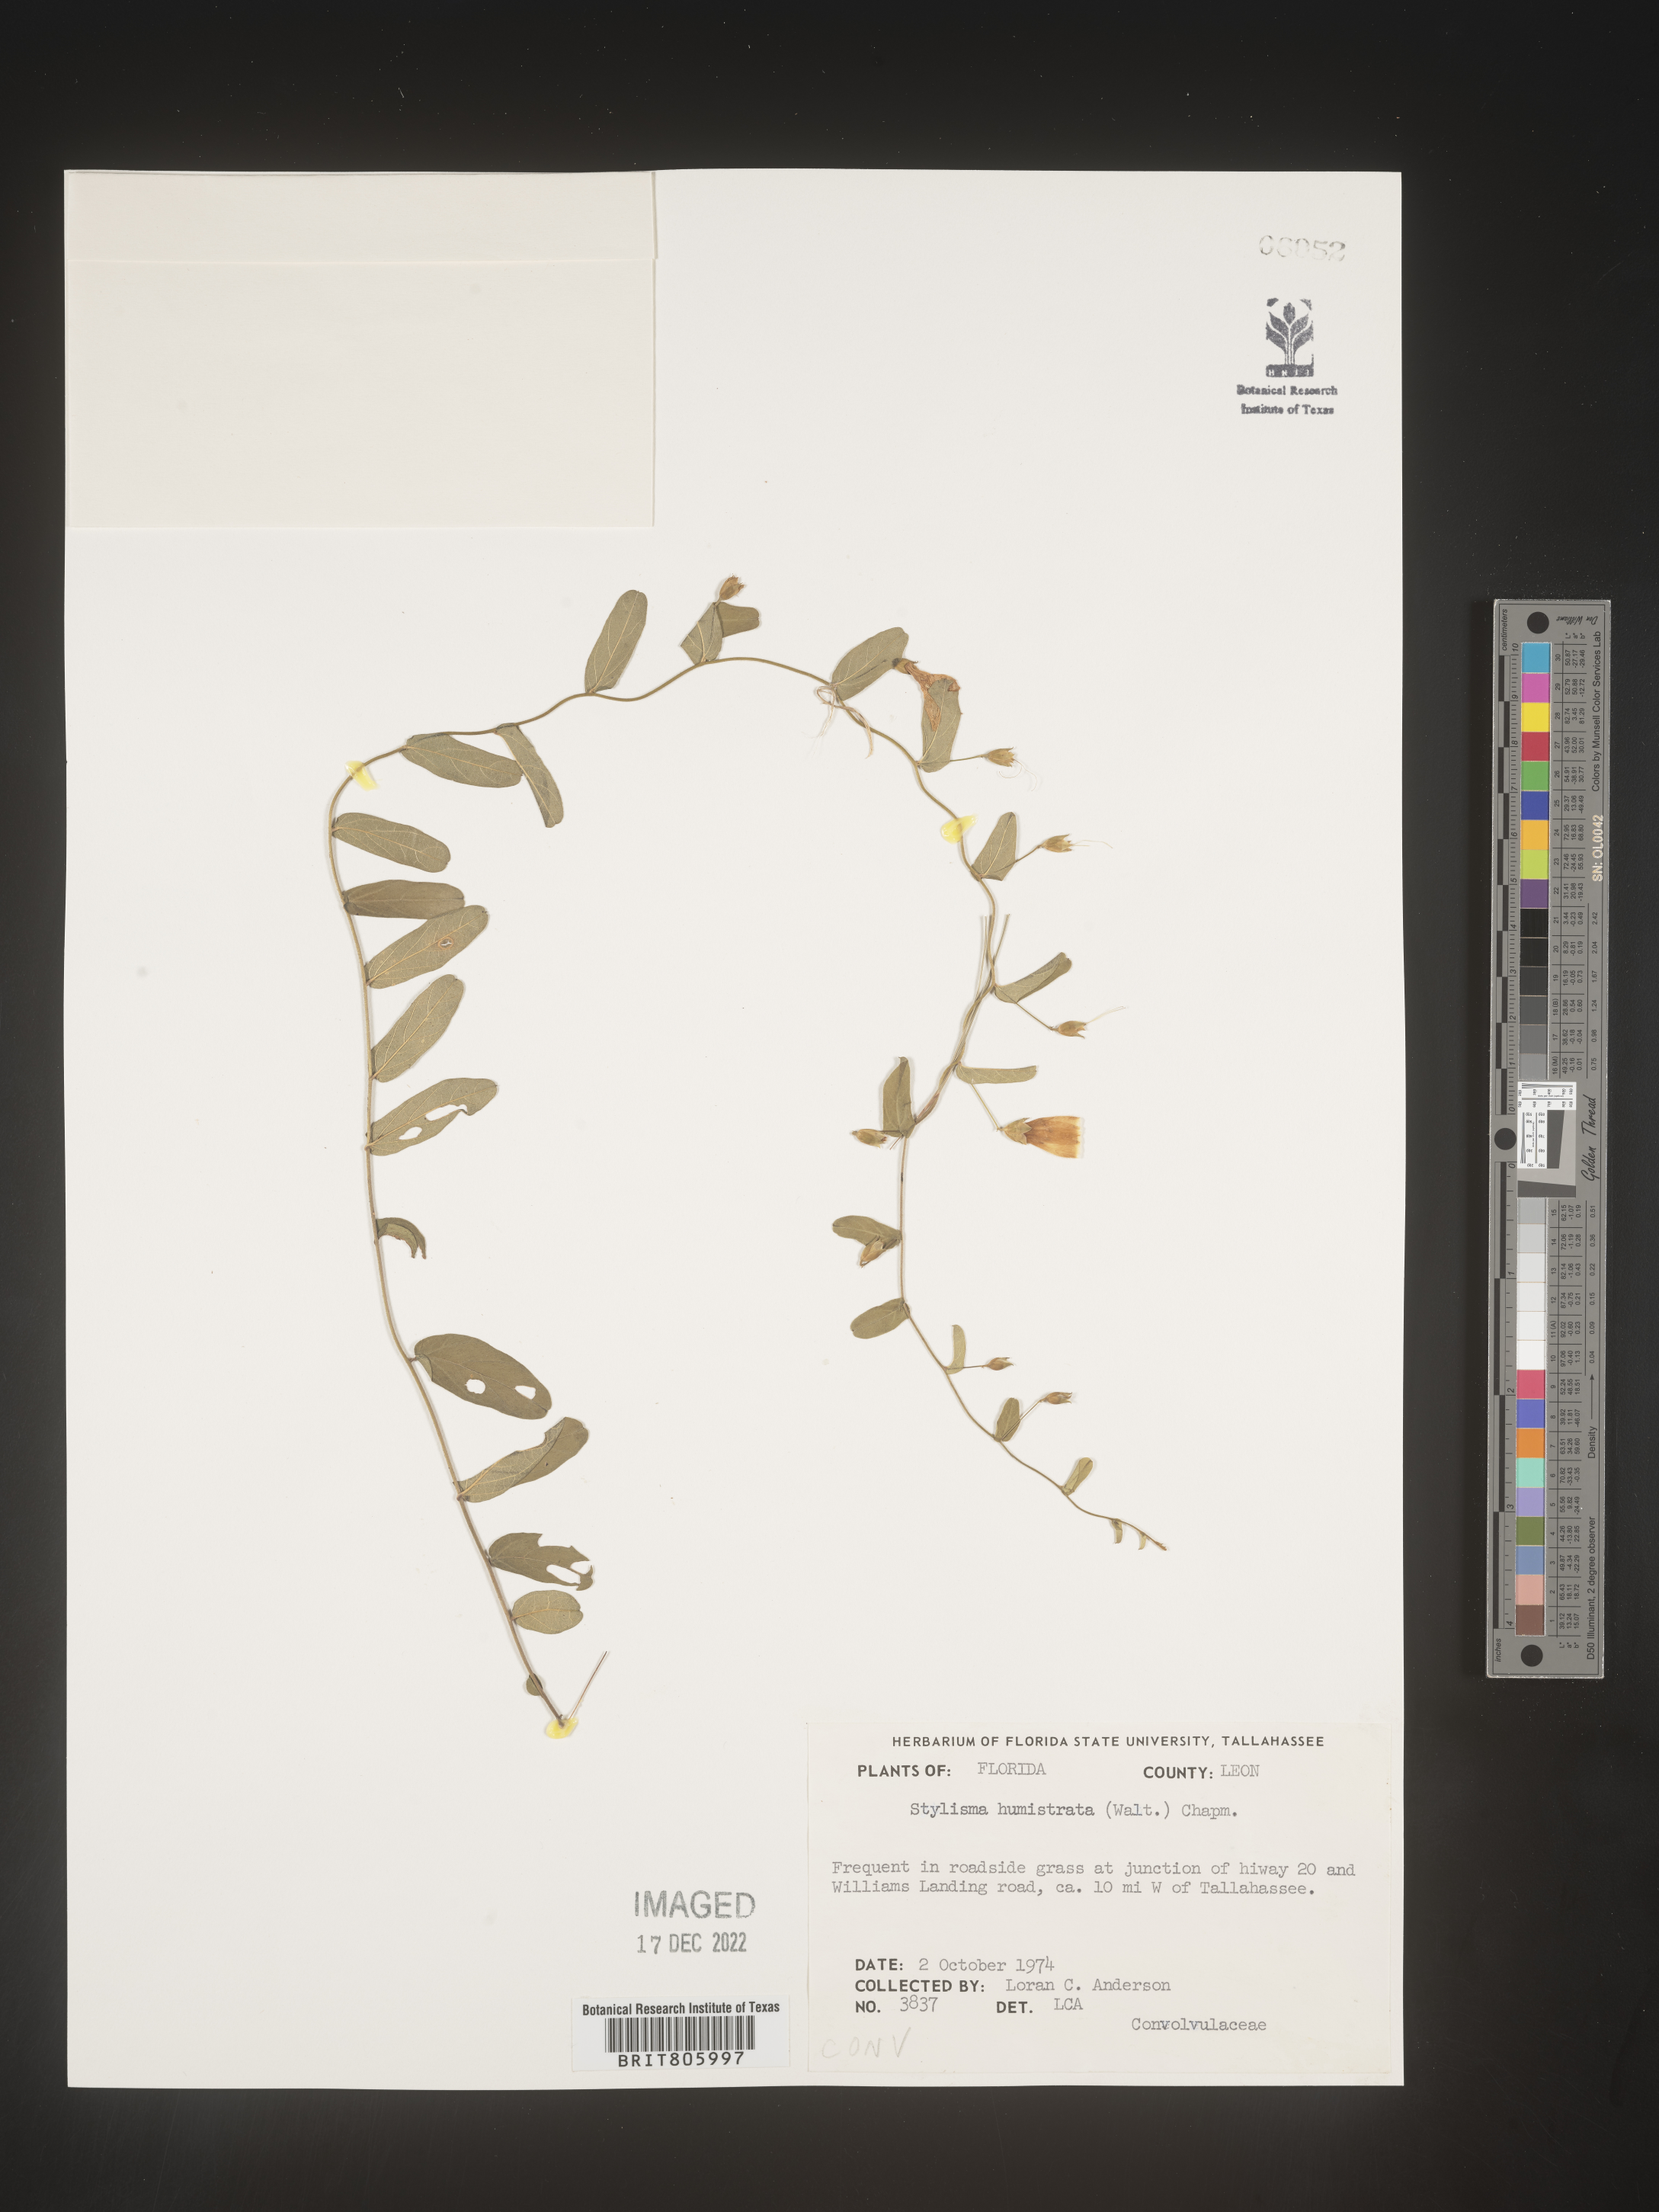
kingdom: Plantae
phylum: Tracheophyta
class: Magnoliopsida
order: Solanales
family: Convolvulaceae
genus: Stylisma
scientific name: Stylisma humistrata
